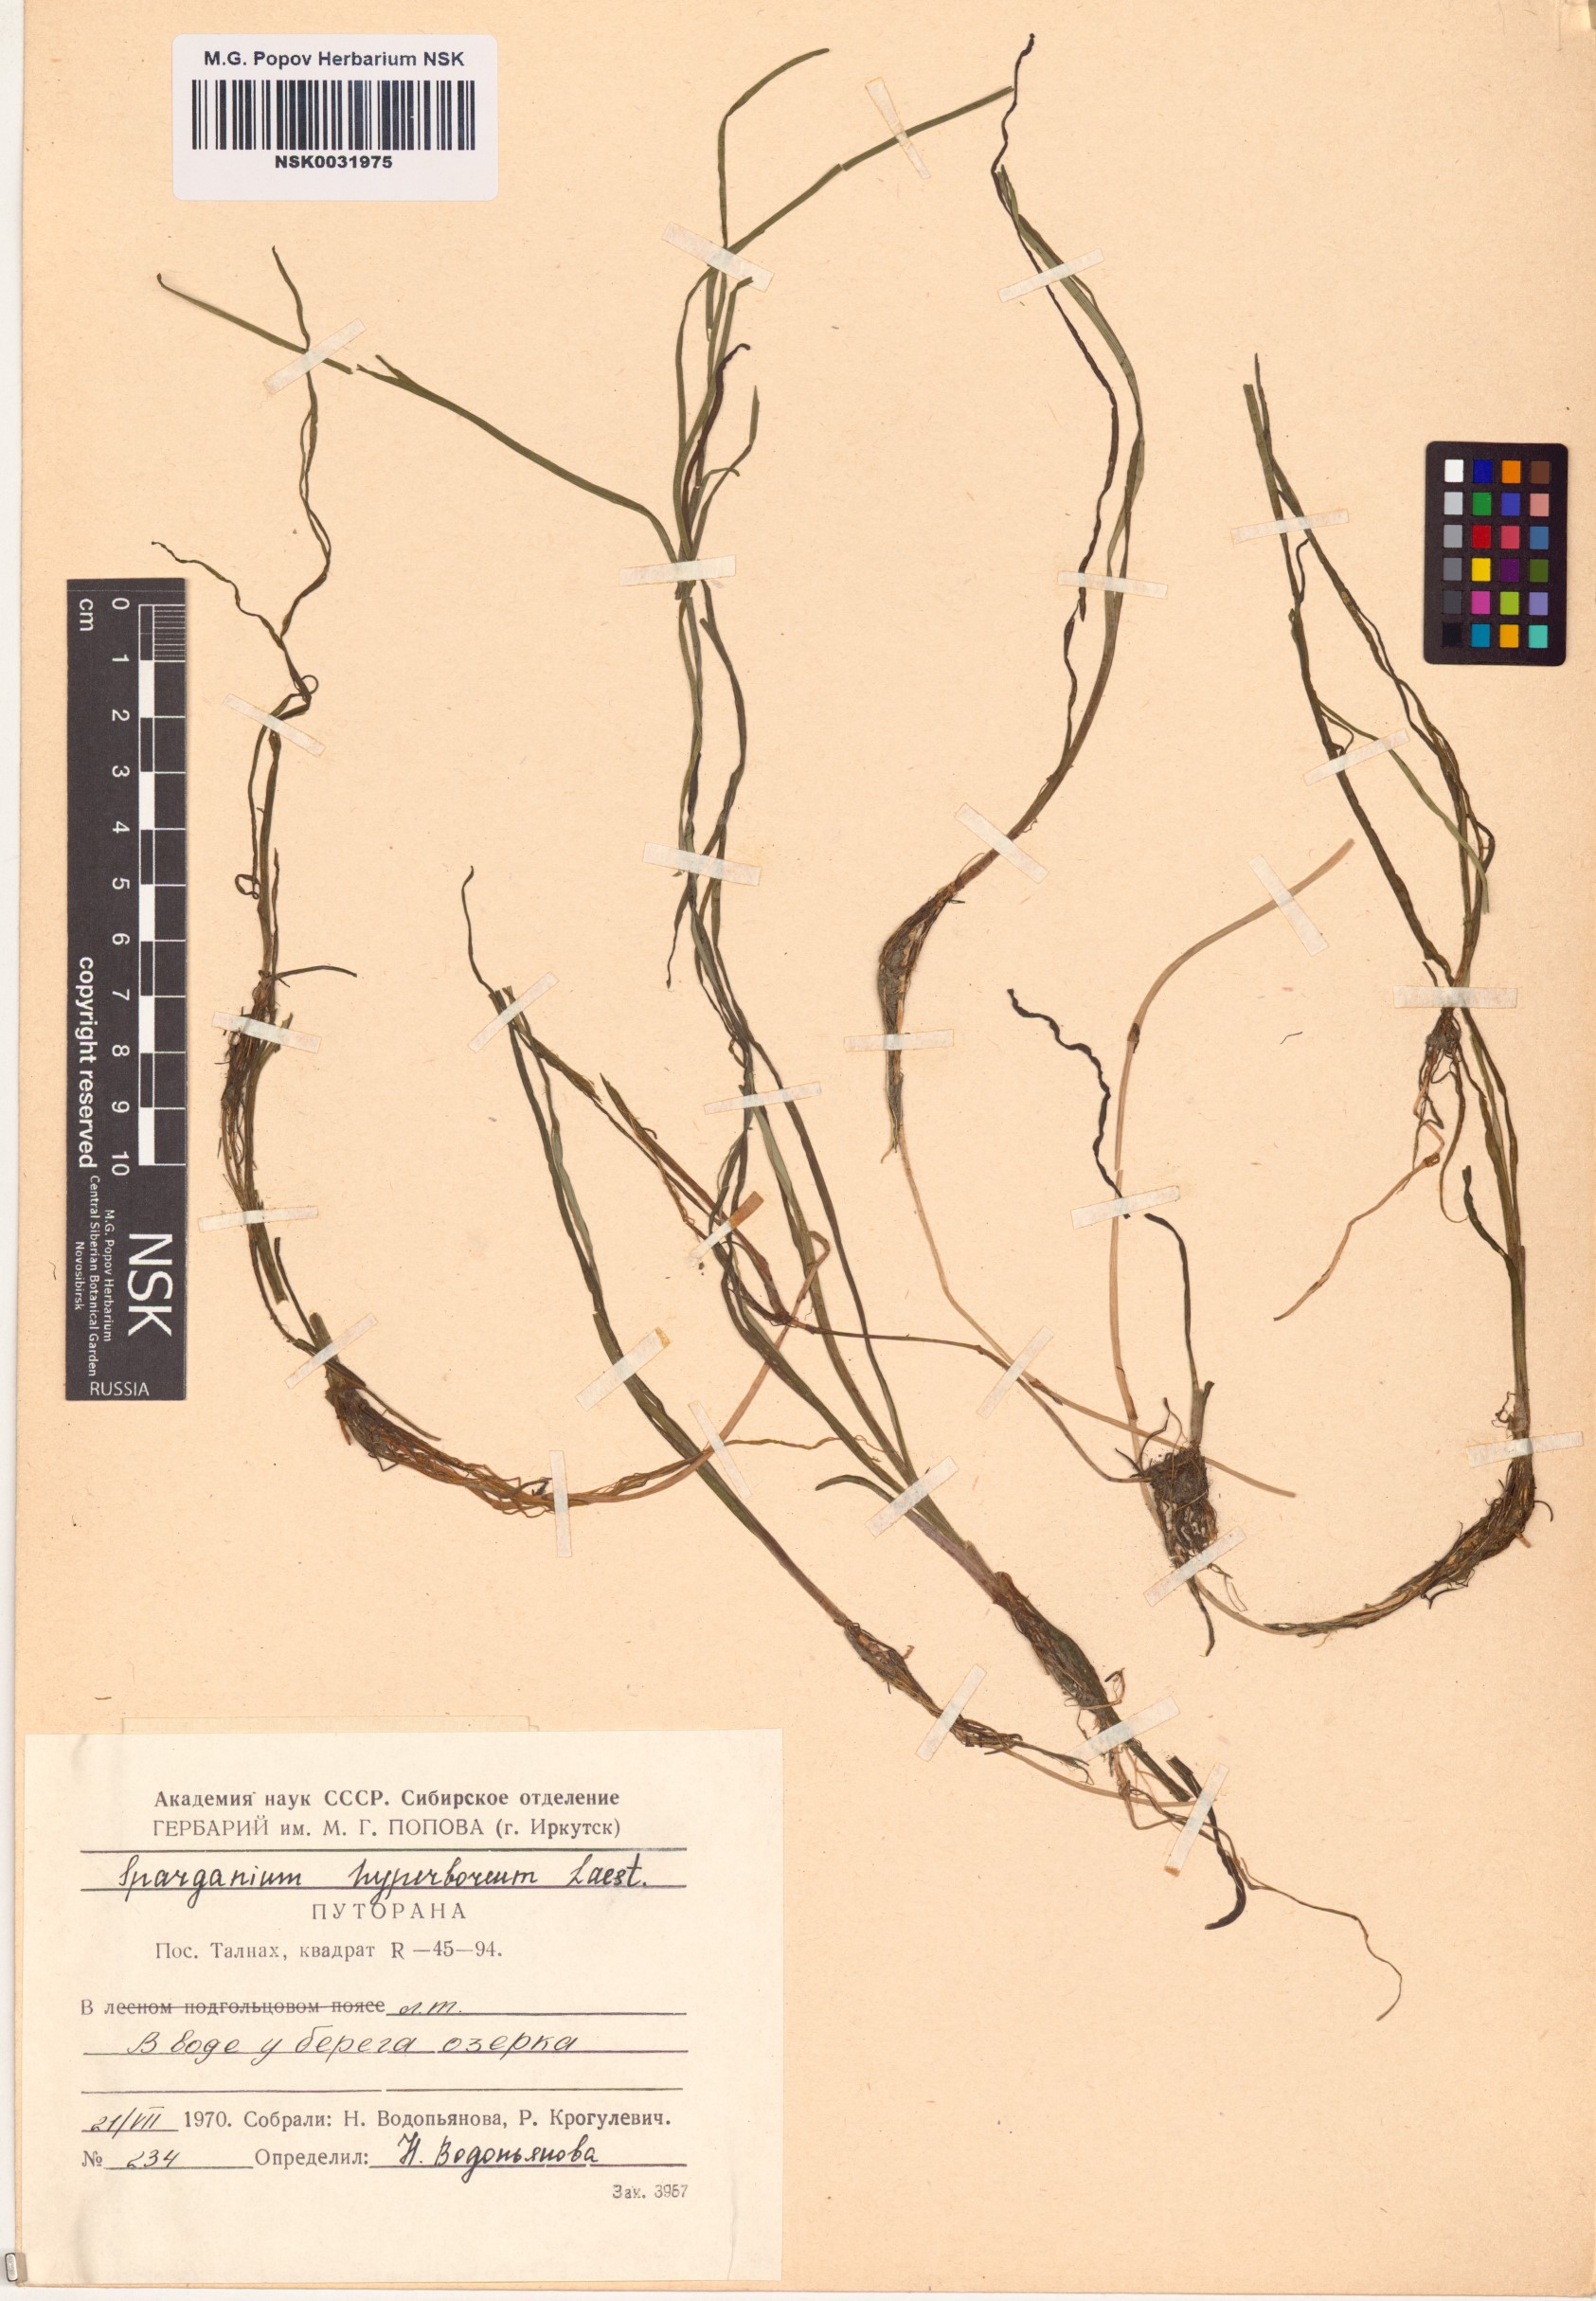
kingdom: Plantae
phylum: Tracheophyta
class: Liliopsida
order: Poales
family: Typhaceae
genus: Sparganium
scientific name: Sparganium hyperboreum
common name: Arctic burreed
